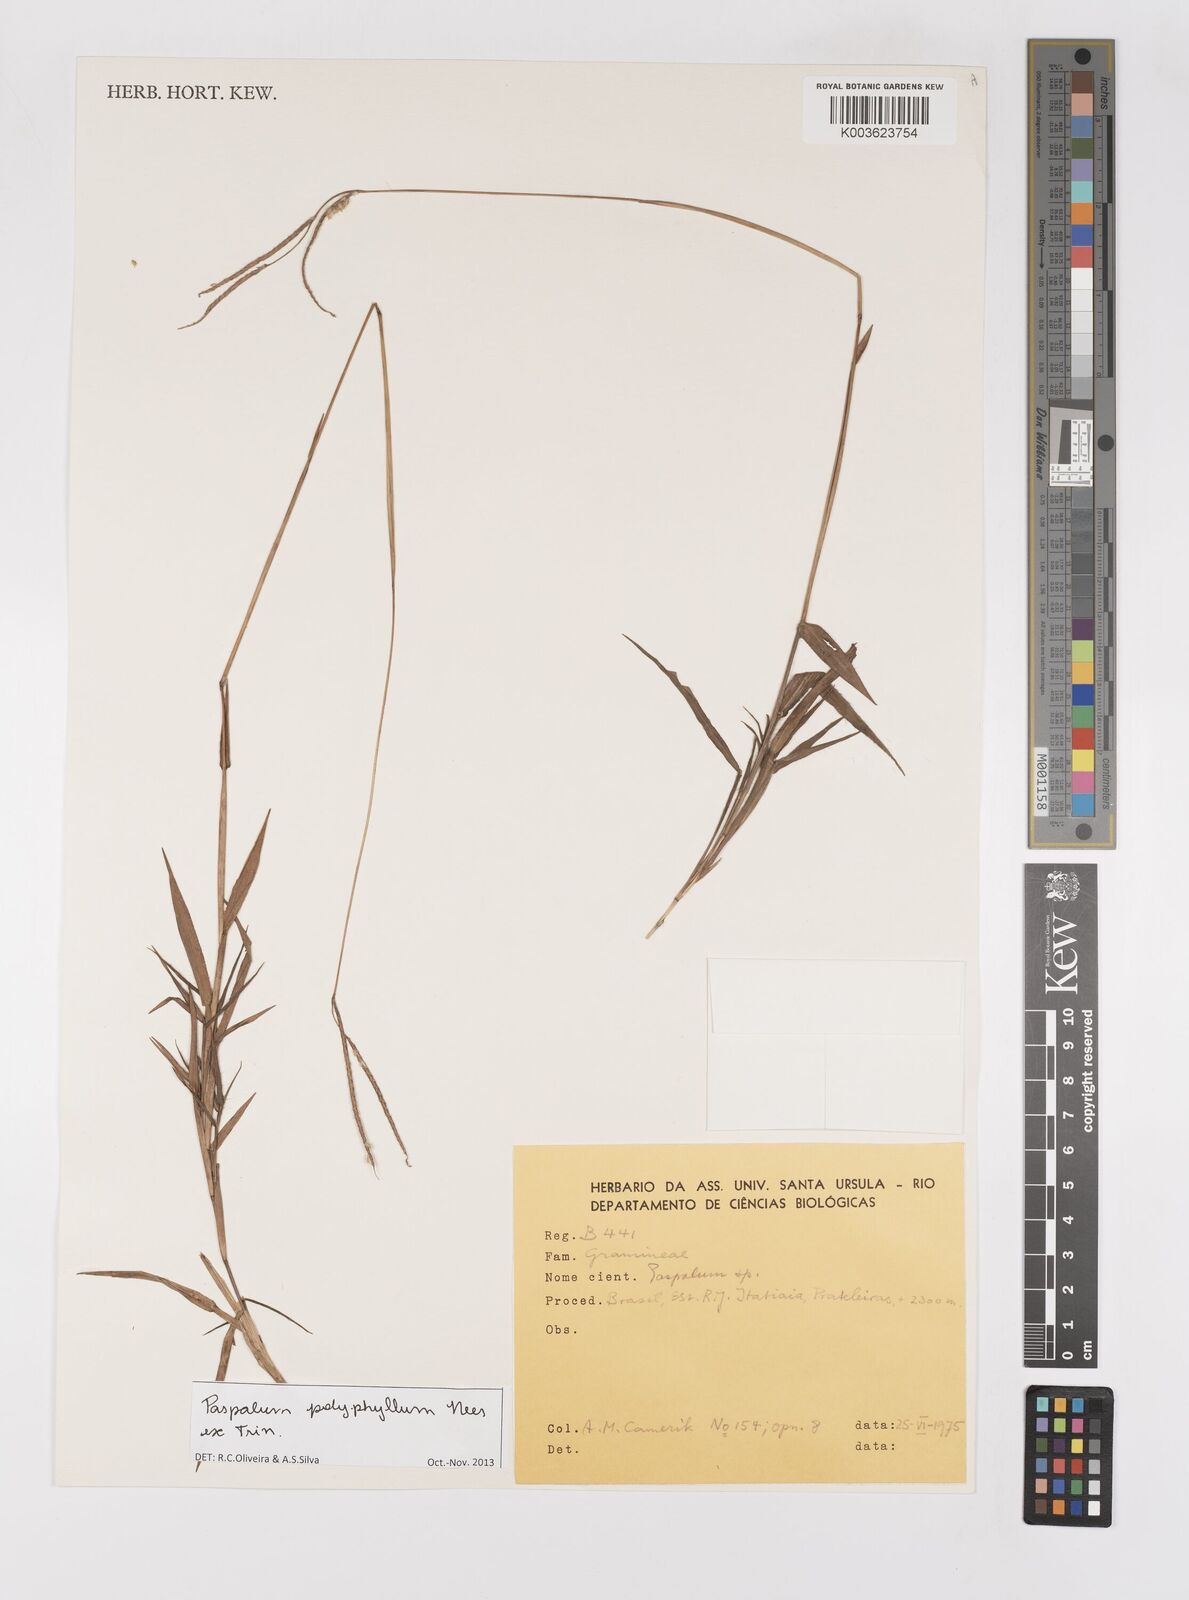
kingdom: Plantae
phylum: Tracheophyta
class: Liliopsida
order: Poales
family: Poaceae
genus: Paspalum
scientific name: Paspalum polyphyllum
